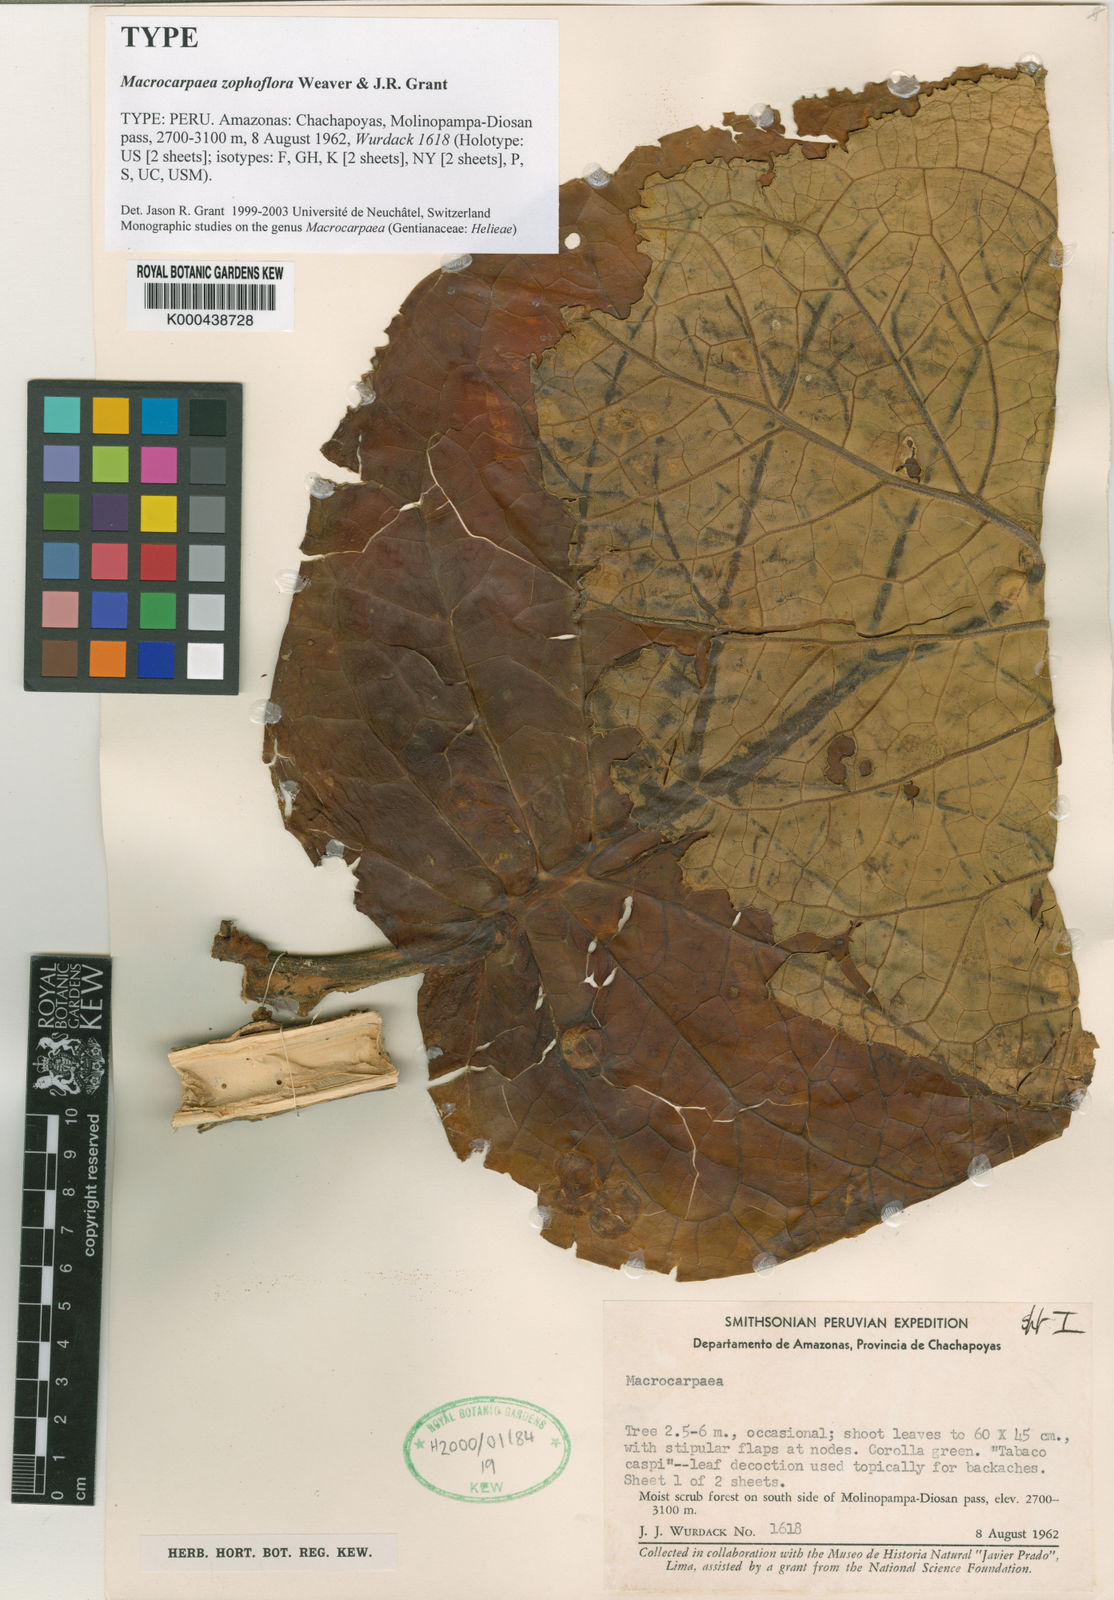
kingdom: Plantae
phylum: Tracheophyta
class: Magnoliopsida
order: Gentianales
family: Gentianaceae
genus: Macrocarpaea
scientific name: Macrocarpaea zophoflora
